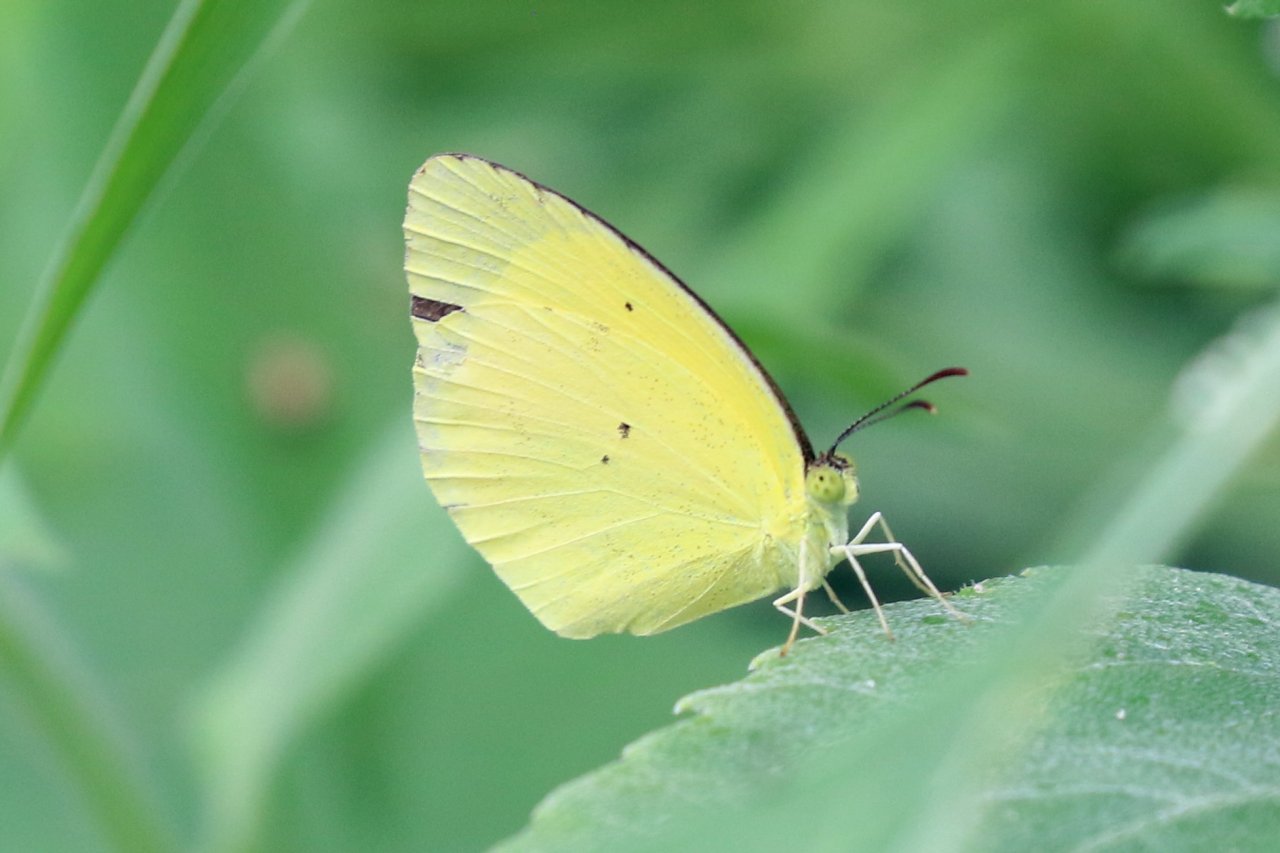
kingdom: Animalia
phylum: Arthropoda
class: Insecta
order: Lepidoptera
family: Pieridae
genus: Pyrisitia
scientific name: Pyrisitia nise
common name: Mimosa Yellow
